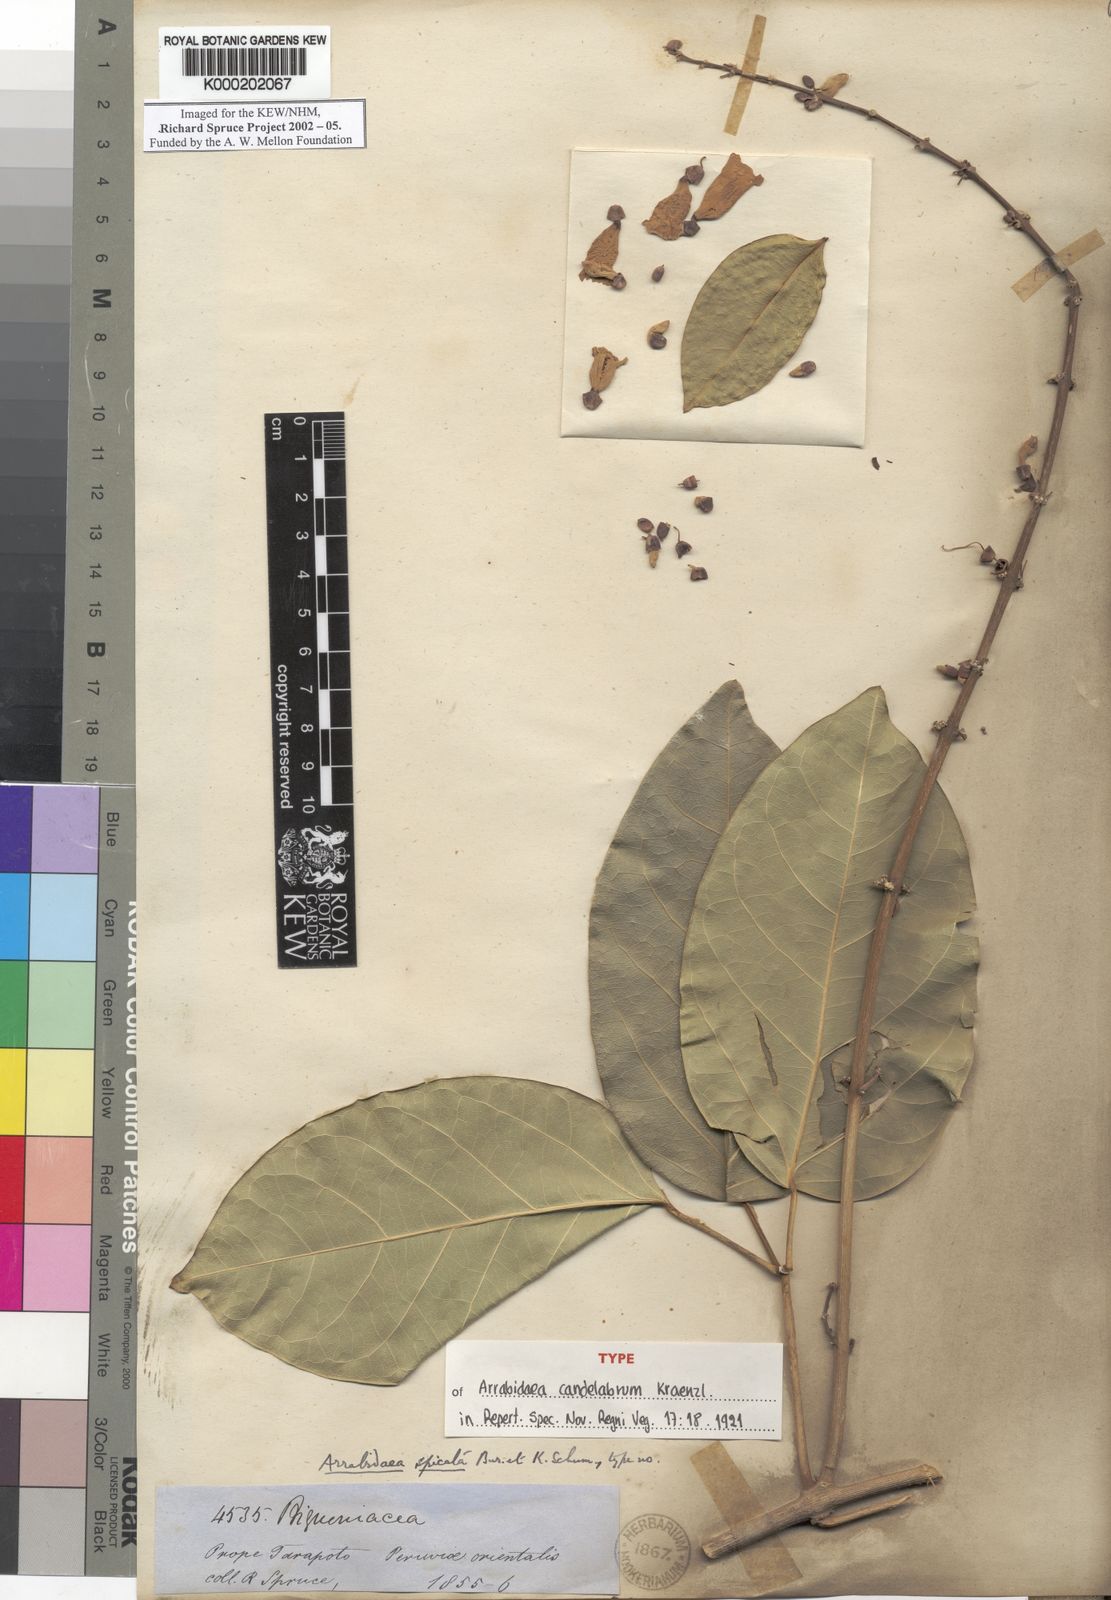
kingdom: Plantae
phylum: Tracheophyta
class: Magnoliopsida
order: Lamiales
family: Bignoniaceae
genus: Fridericia
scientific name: Fridericia spicata
